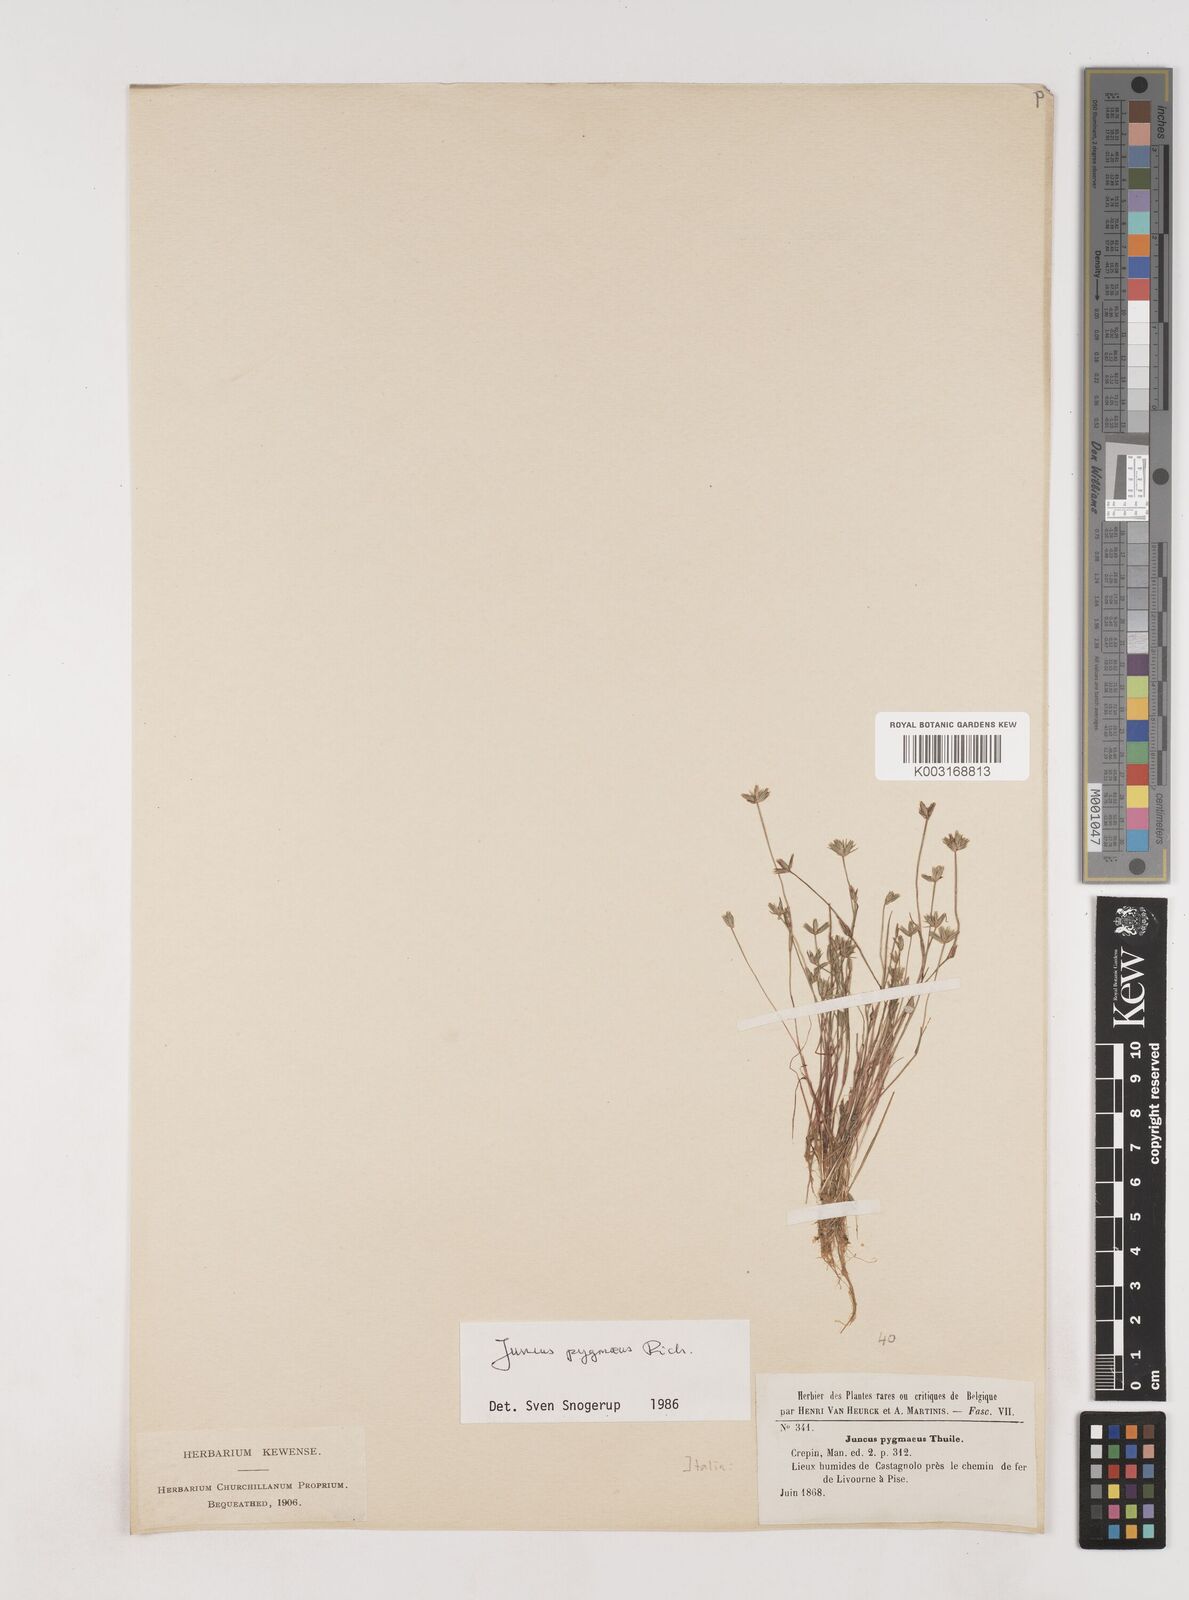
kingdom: Plantae
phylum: Tracheophyta
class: Liliopsida
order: Poales
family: Juncaceae
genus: Juncus
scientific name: Juncus pygmaeus
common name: Pigmy rush
